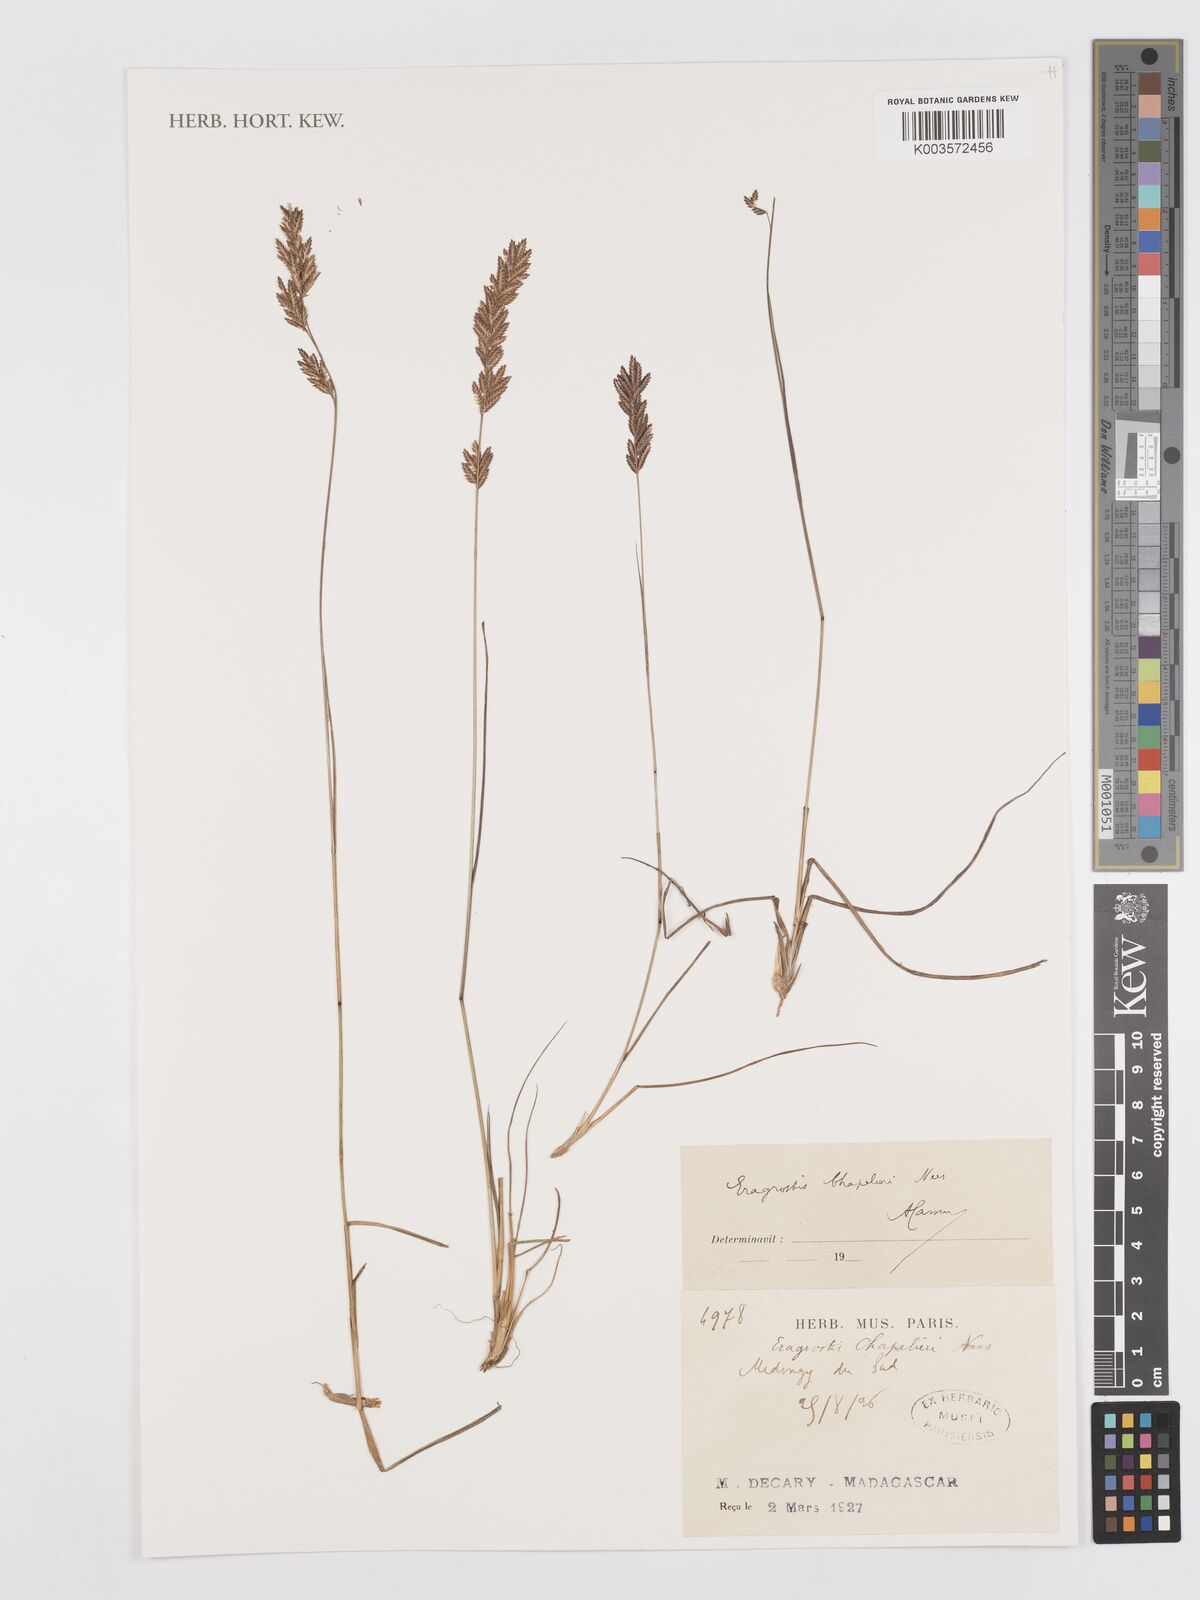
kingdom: Plantae
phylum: Tracheophyta
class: Liliopsida
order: Poales
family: Poaceae
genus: Eragrostis
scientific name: Eragrostis chapelieri
